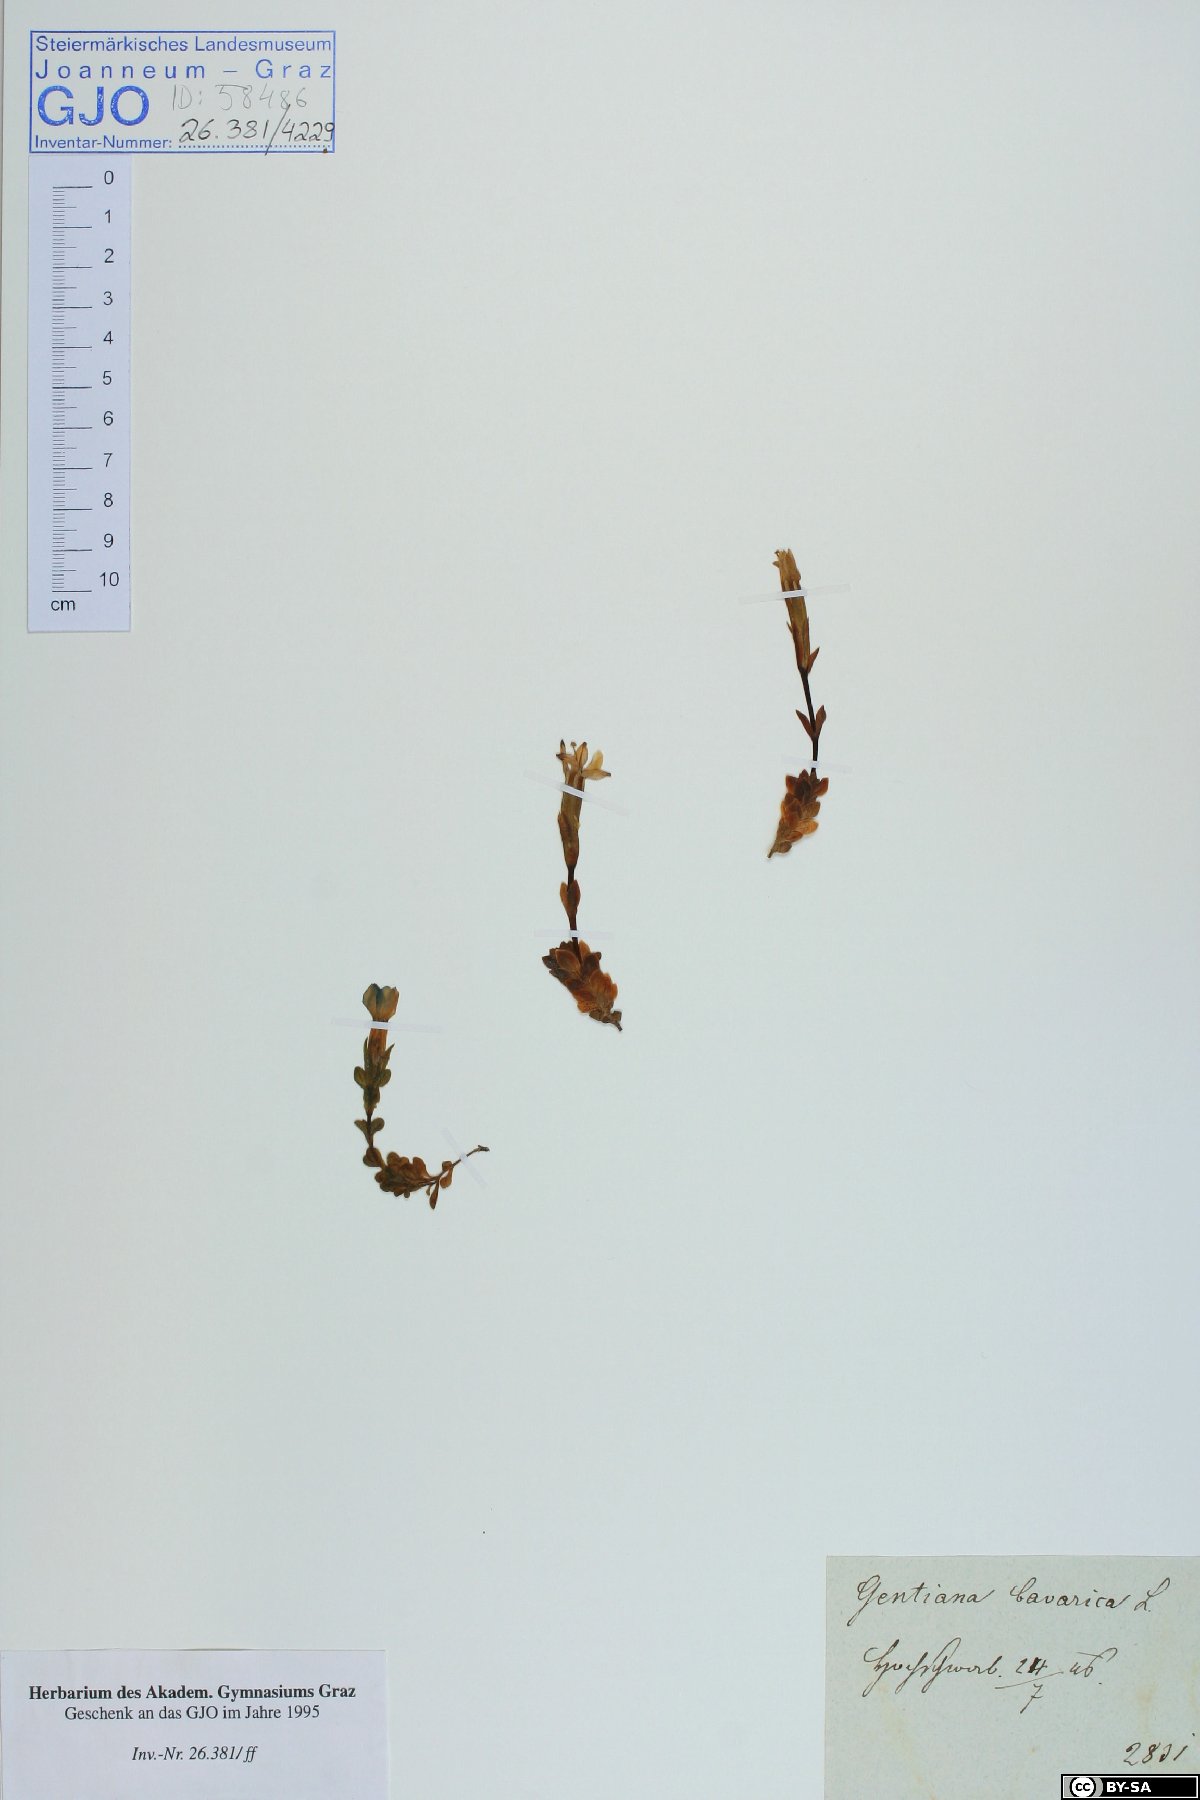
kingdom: Plantae
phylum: Tracheophyta
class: Magnoliopsida
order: Gentianales
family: Gentianaceae
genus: Gentiana
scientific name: Gentiana bavarica
